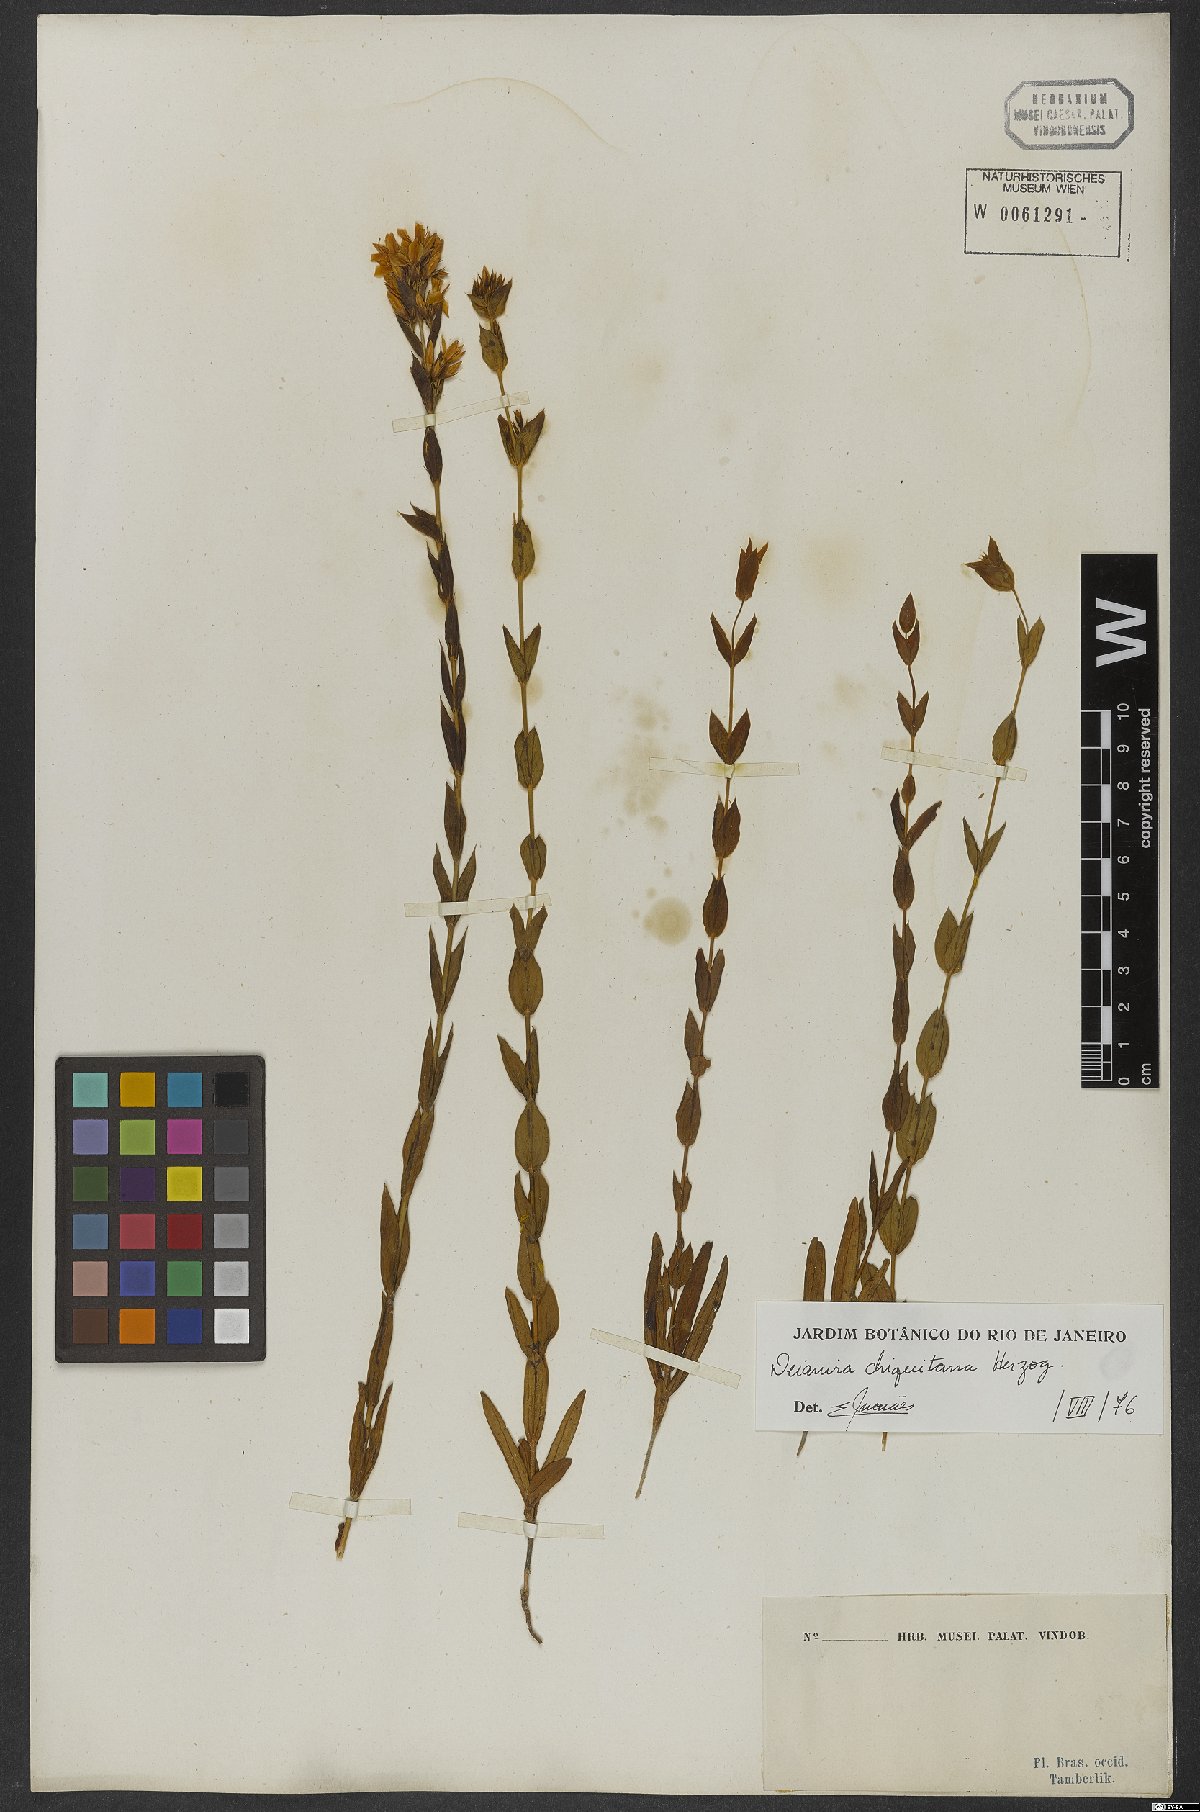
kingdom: Plantae
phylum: Tracheophyta
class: Magnoliopsida
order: Gentianales
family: Gentianaceae
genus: Deianira
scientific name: Deianira chiquitana
